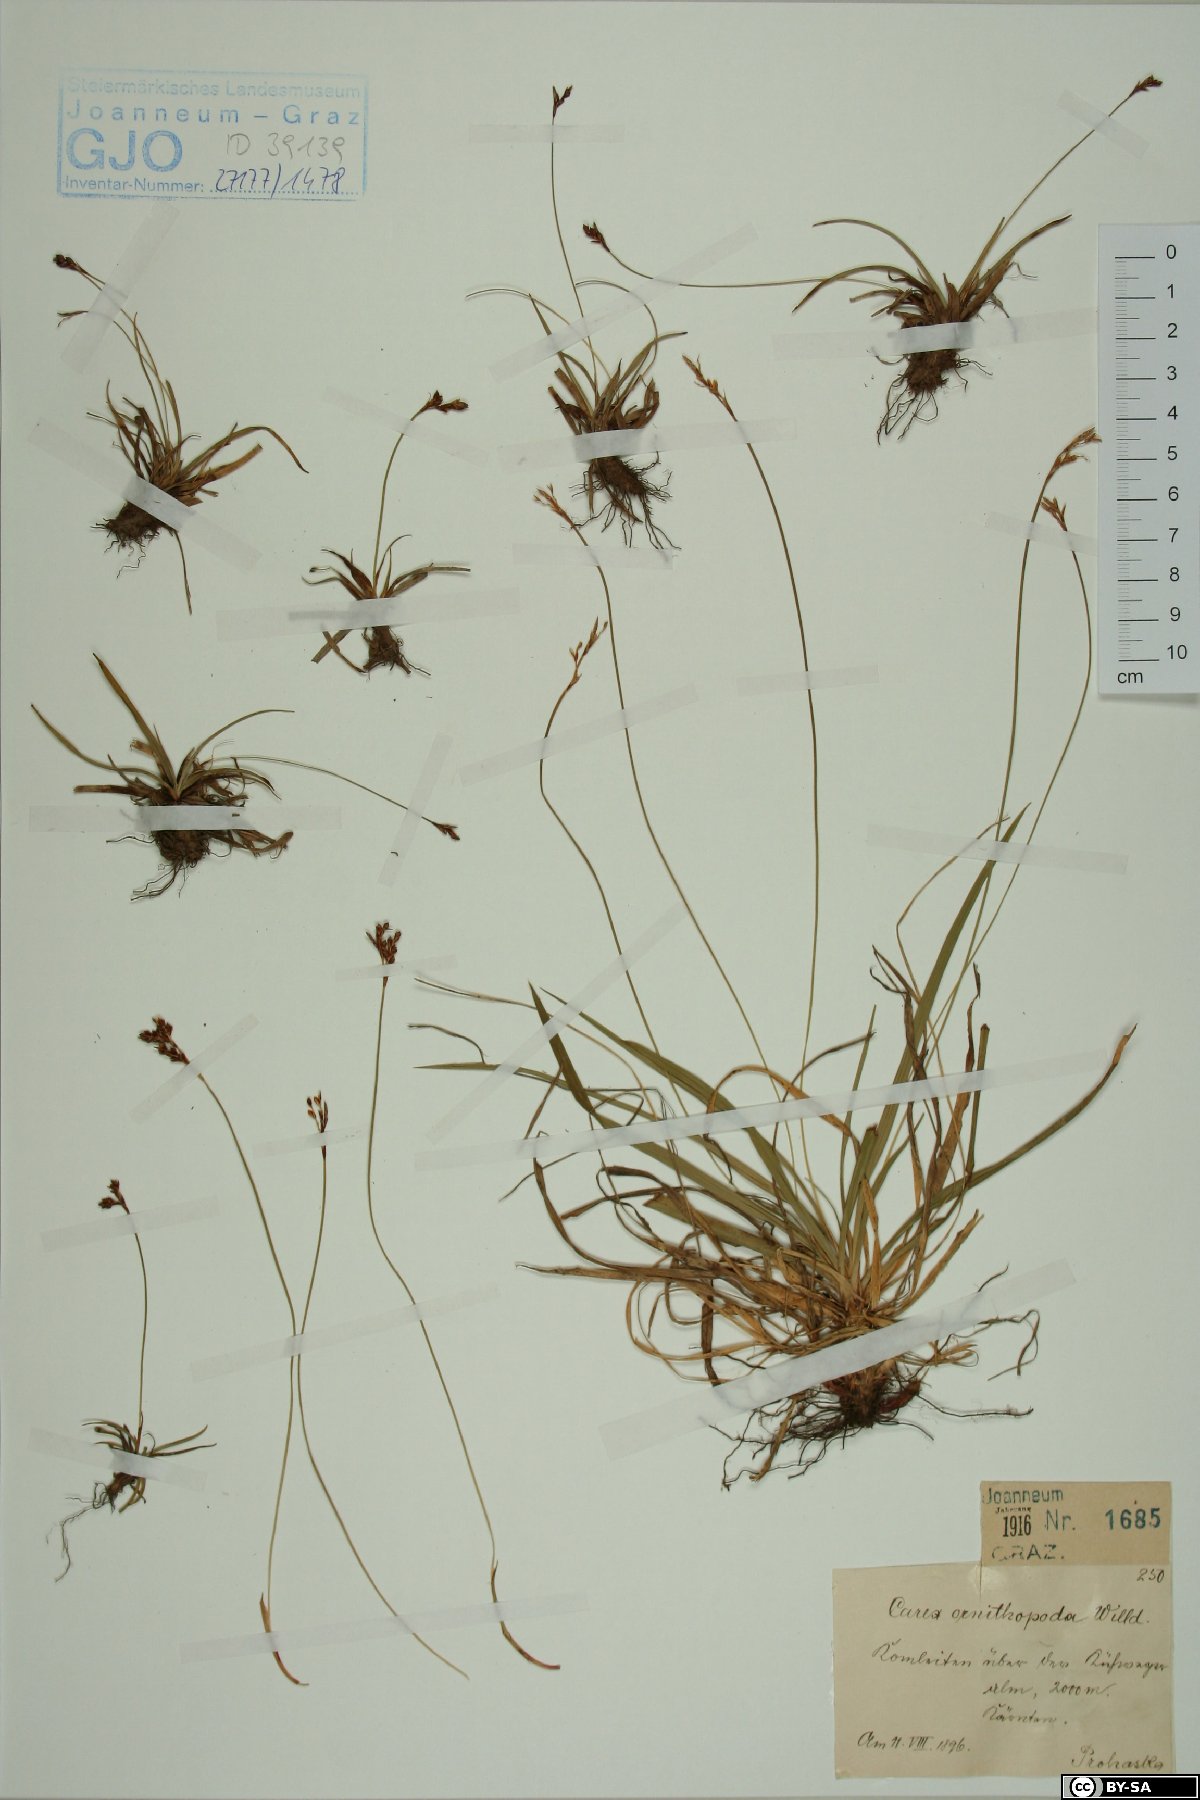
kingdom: Plantae
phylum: Tracheophyta
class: Liliopsida
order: Poales
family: Cyperaceae
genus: Carex
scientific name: Carex ornithopoda
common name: Bird's-foot sedge
